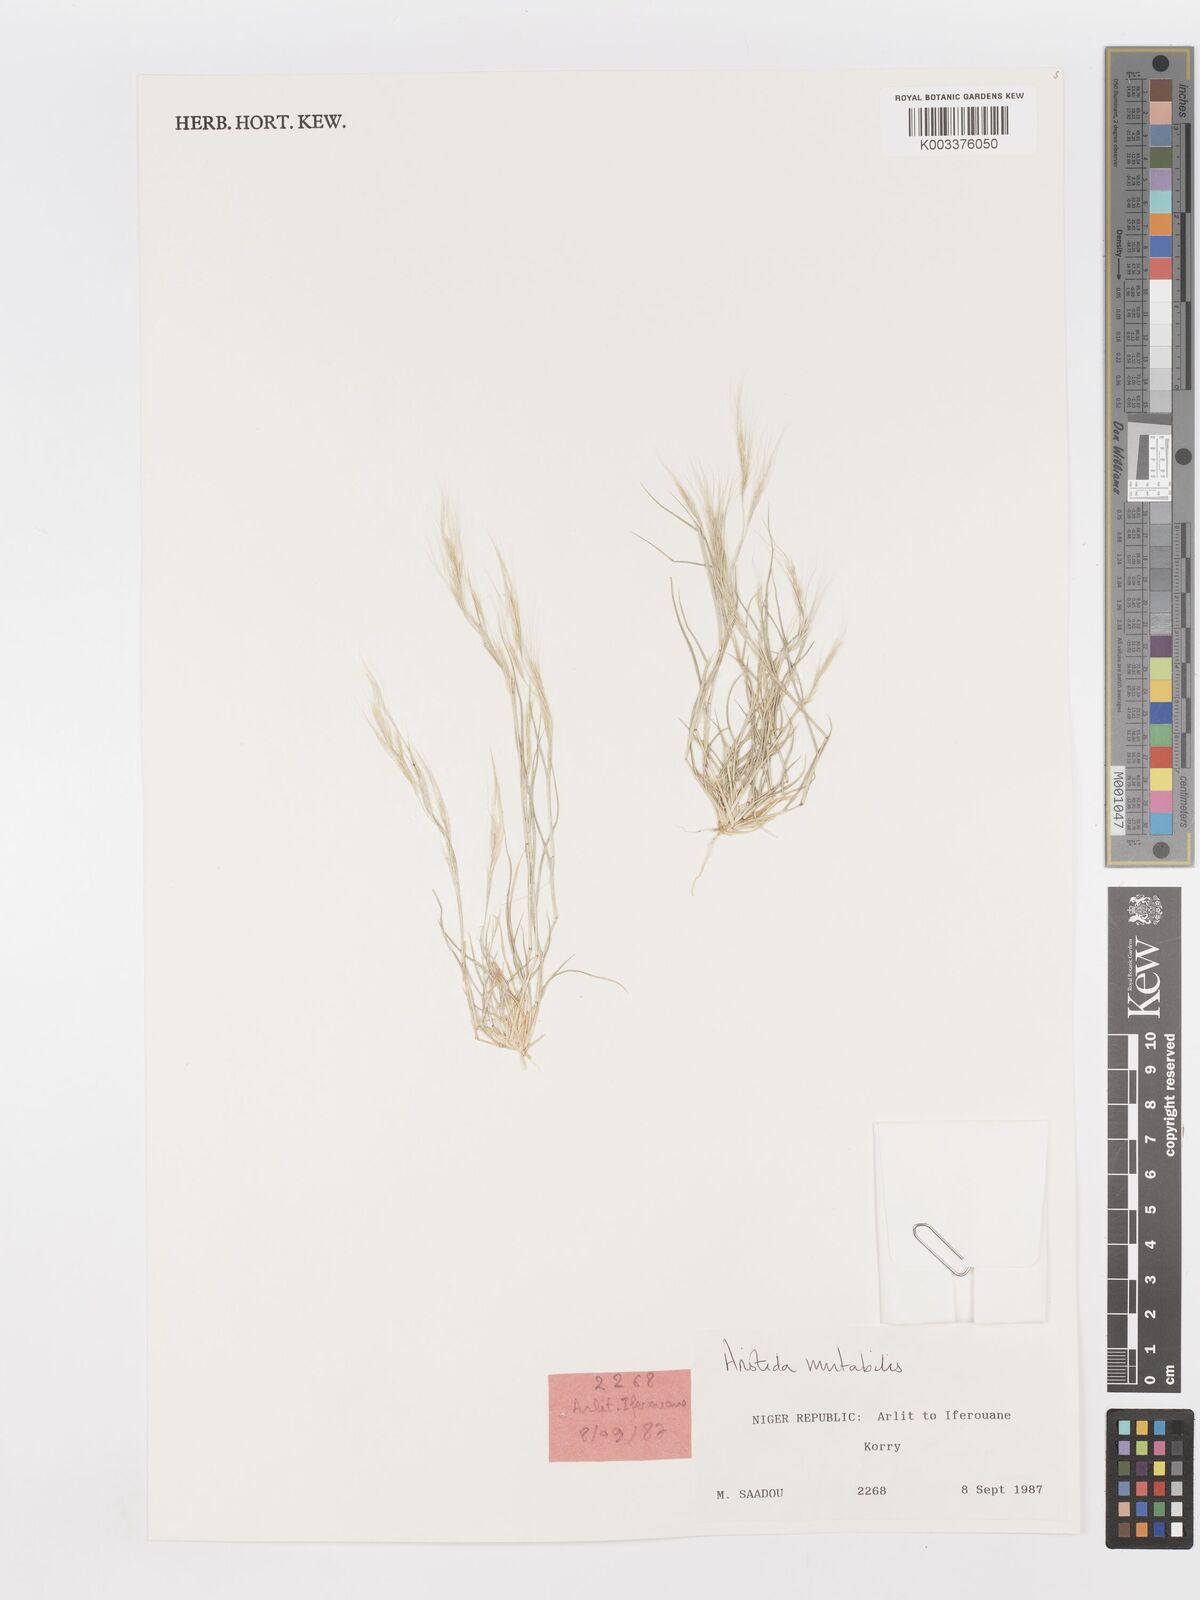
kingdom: Plantae
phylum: Tracheophyta
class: Liliopsida
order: Poales
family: Poaceae
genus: Aristida
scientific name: Aristida mutabilis
